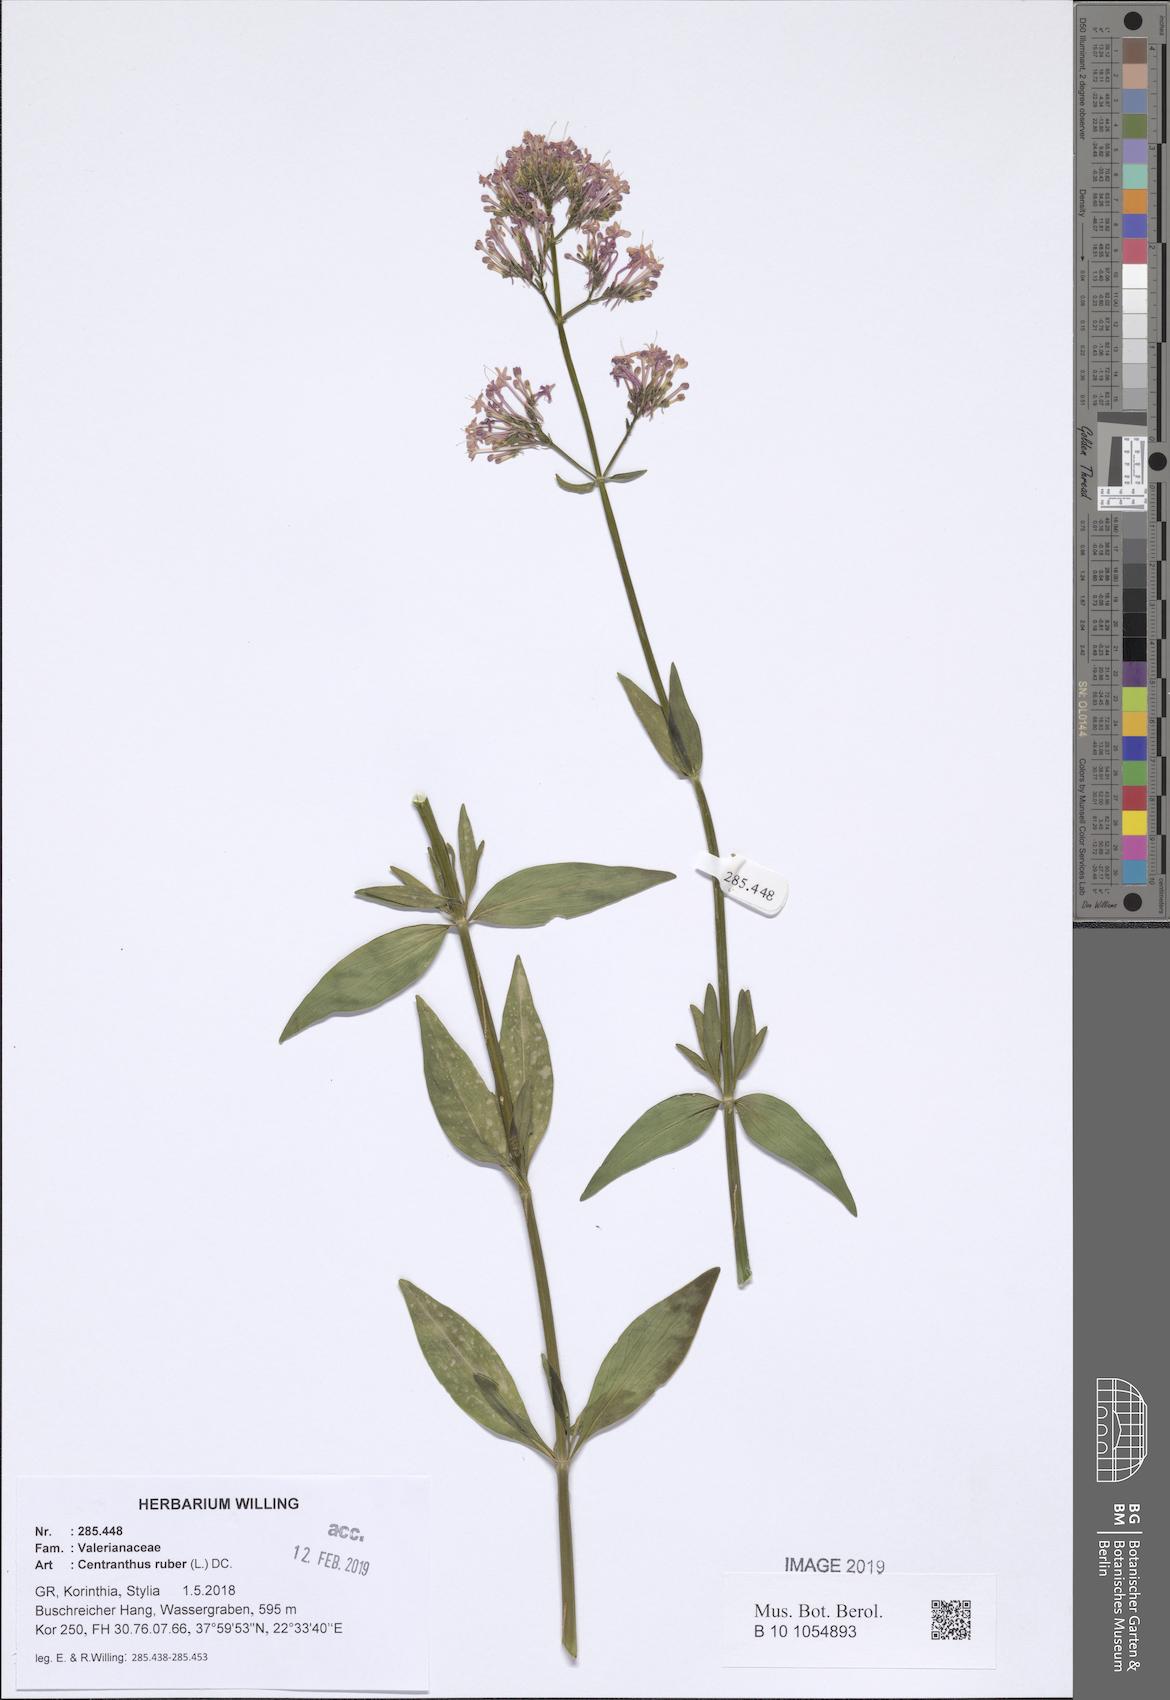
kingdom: Plantae
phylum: Tracheophyta
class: Magnoliopsida
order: Dipsacales
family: Caprifoliaceae
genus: Centranthus
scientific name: Centranthus ruber
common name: Red valerian
